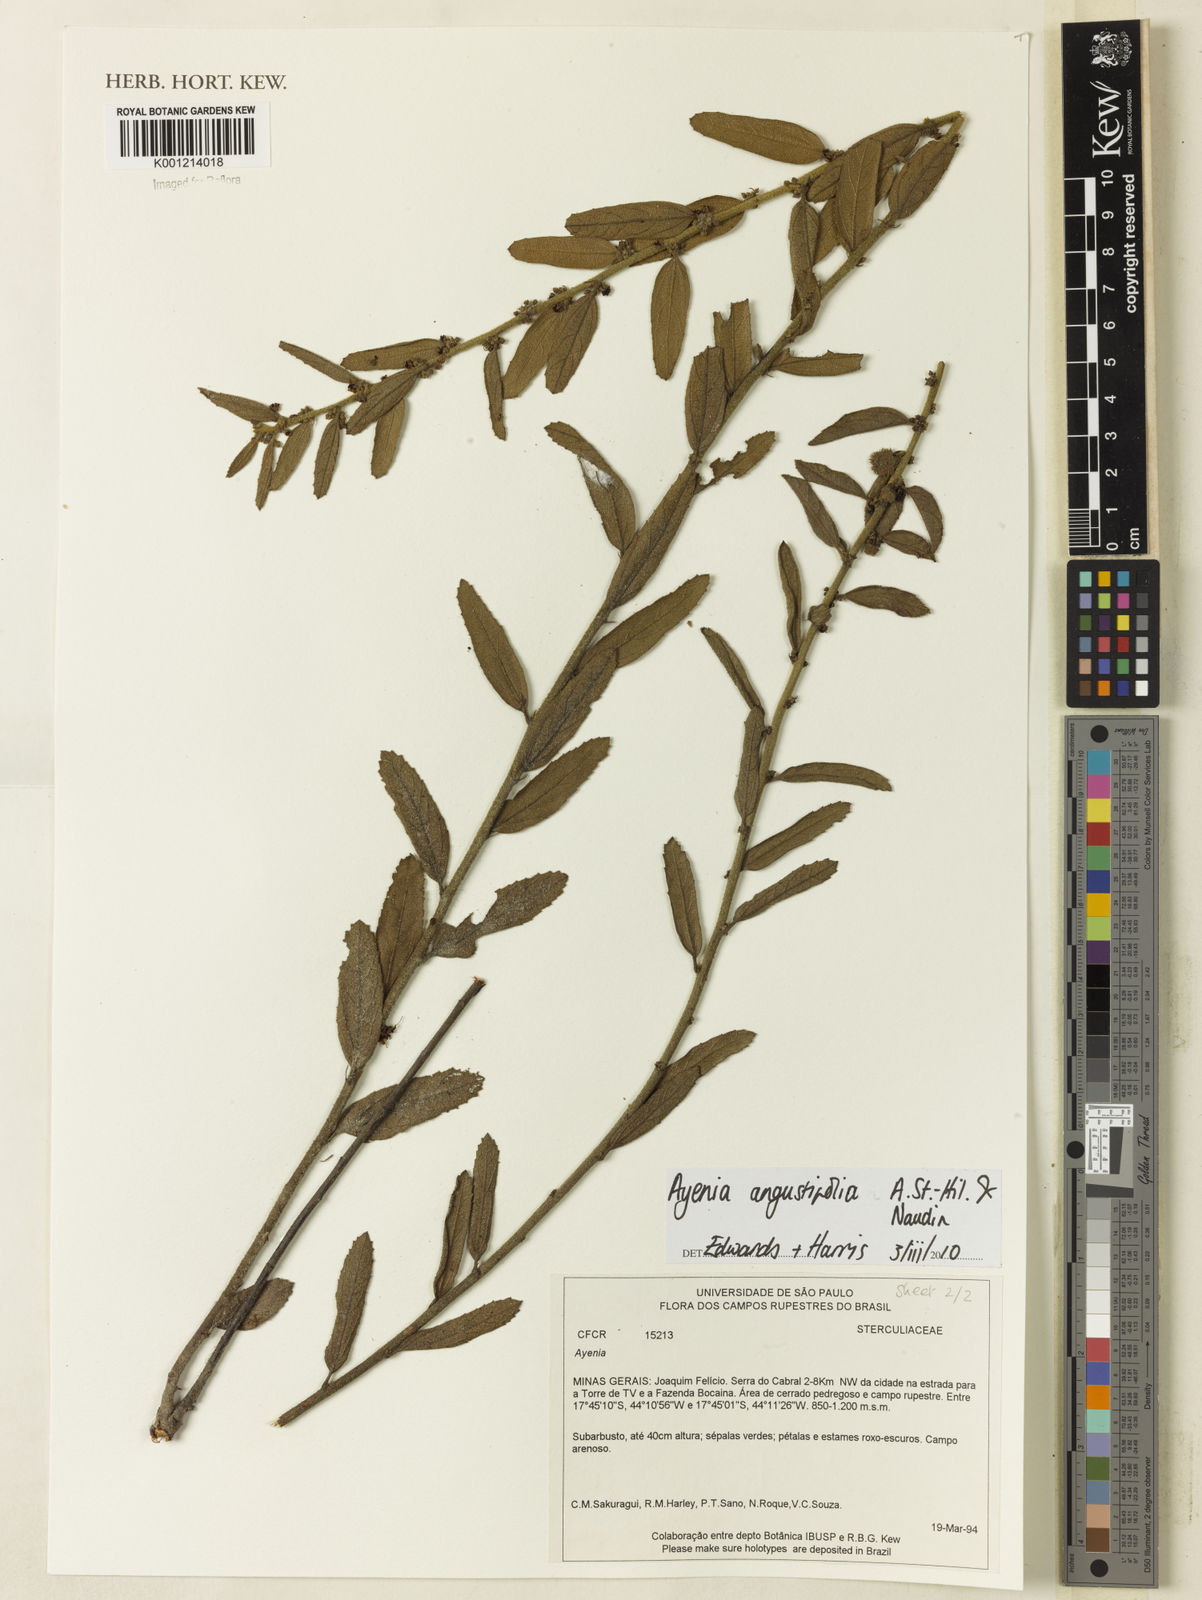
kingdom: Plantae
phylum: Tracheophyta
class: Magnoliopsida
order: Malvales
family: Malvaceae
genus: Ayenia
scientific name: Ayenia angustifolia
